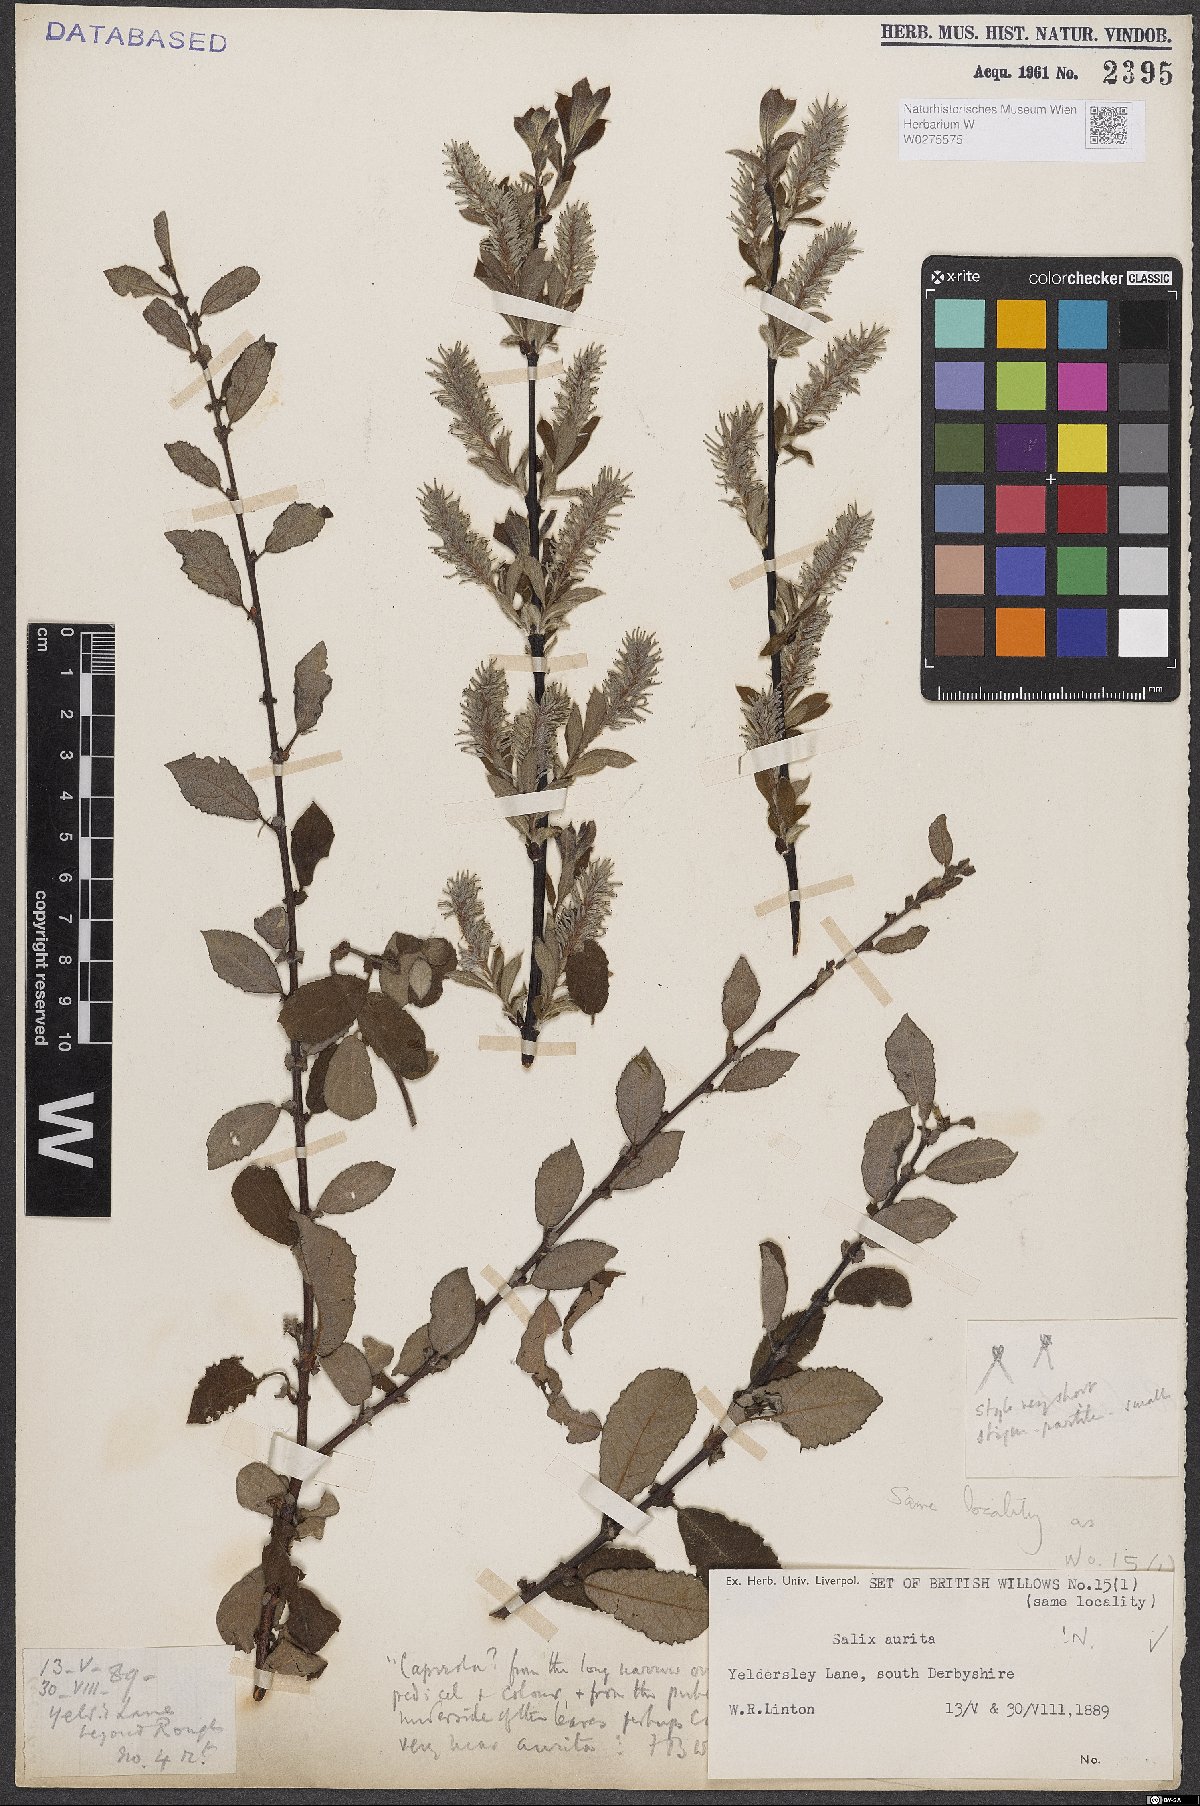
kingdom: Plantae
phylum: Tracheophyta
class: Magnoliopsida
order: Malpighiales
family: Salicaceae
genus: Salix
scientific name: Salix aurita
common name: Eared willow
